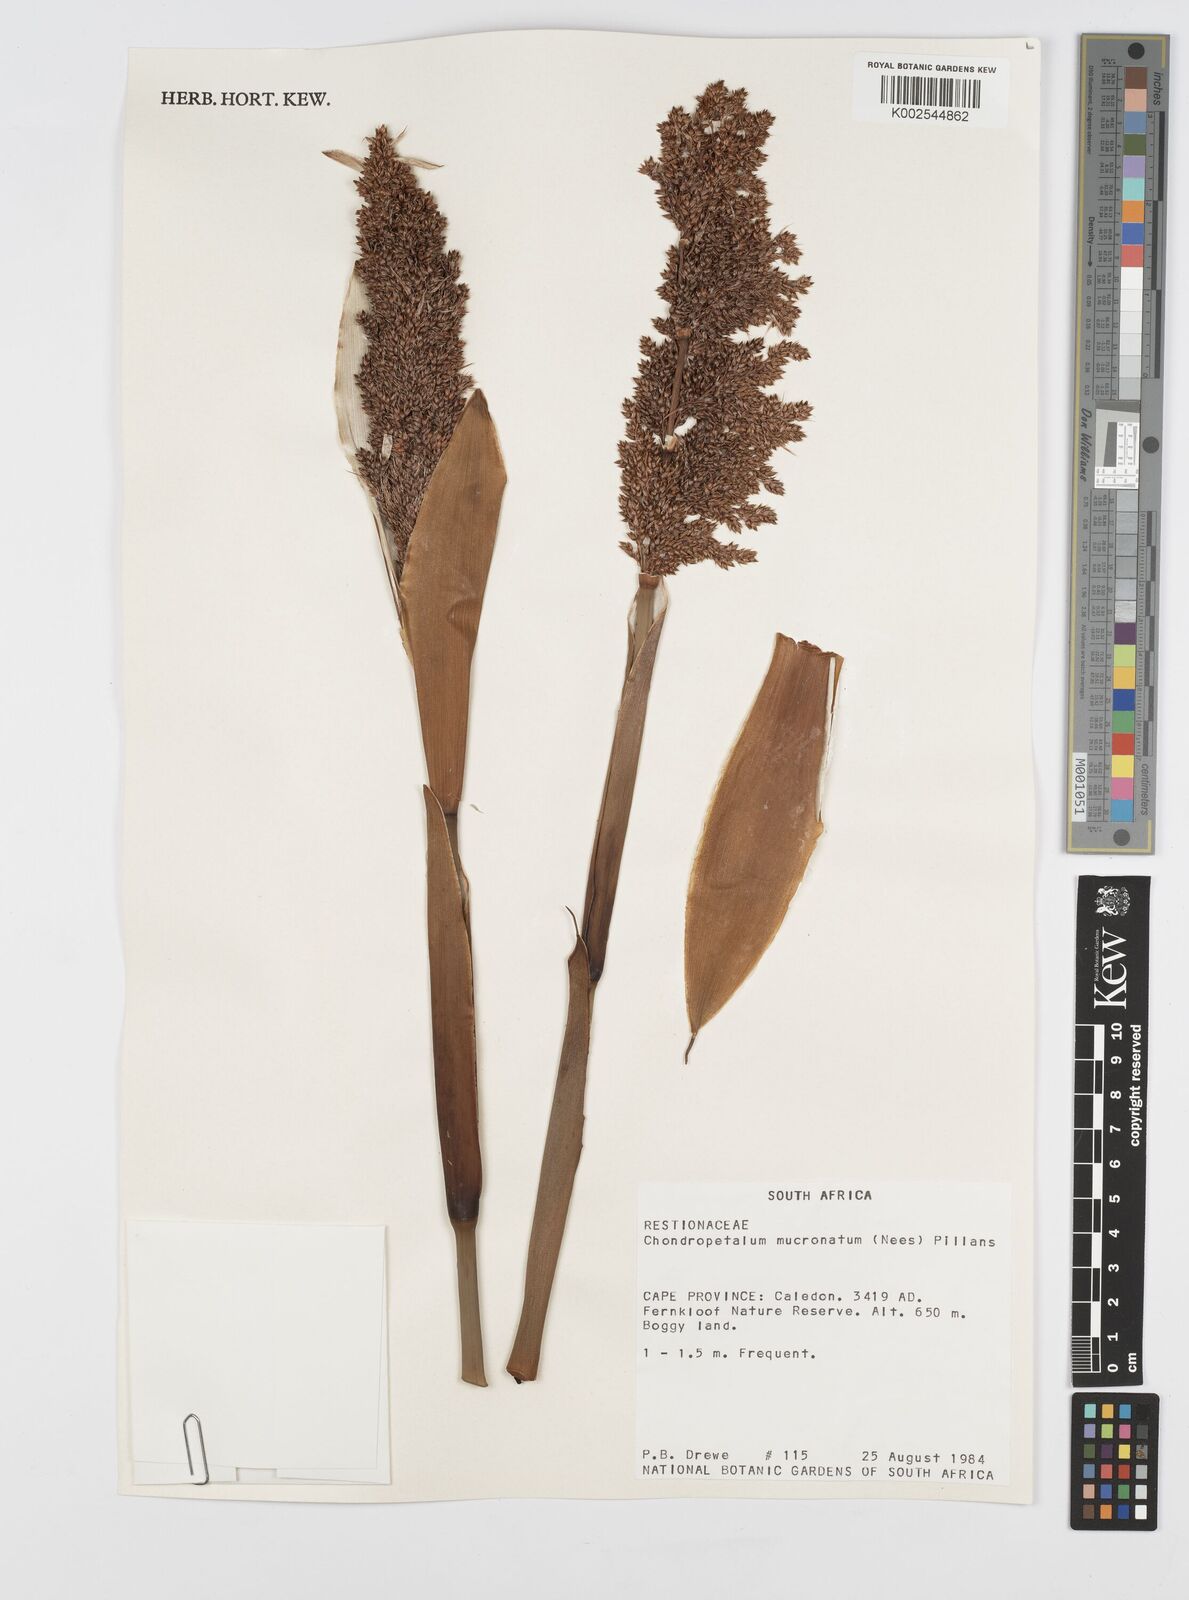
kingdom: Plantae
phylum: Tracheophyta
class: Liliopsida
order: Poales
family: Restionaceae
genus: Elegia
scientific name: Elegia mucronata
